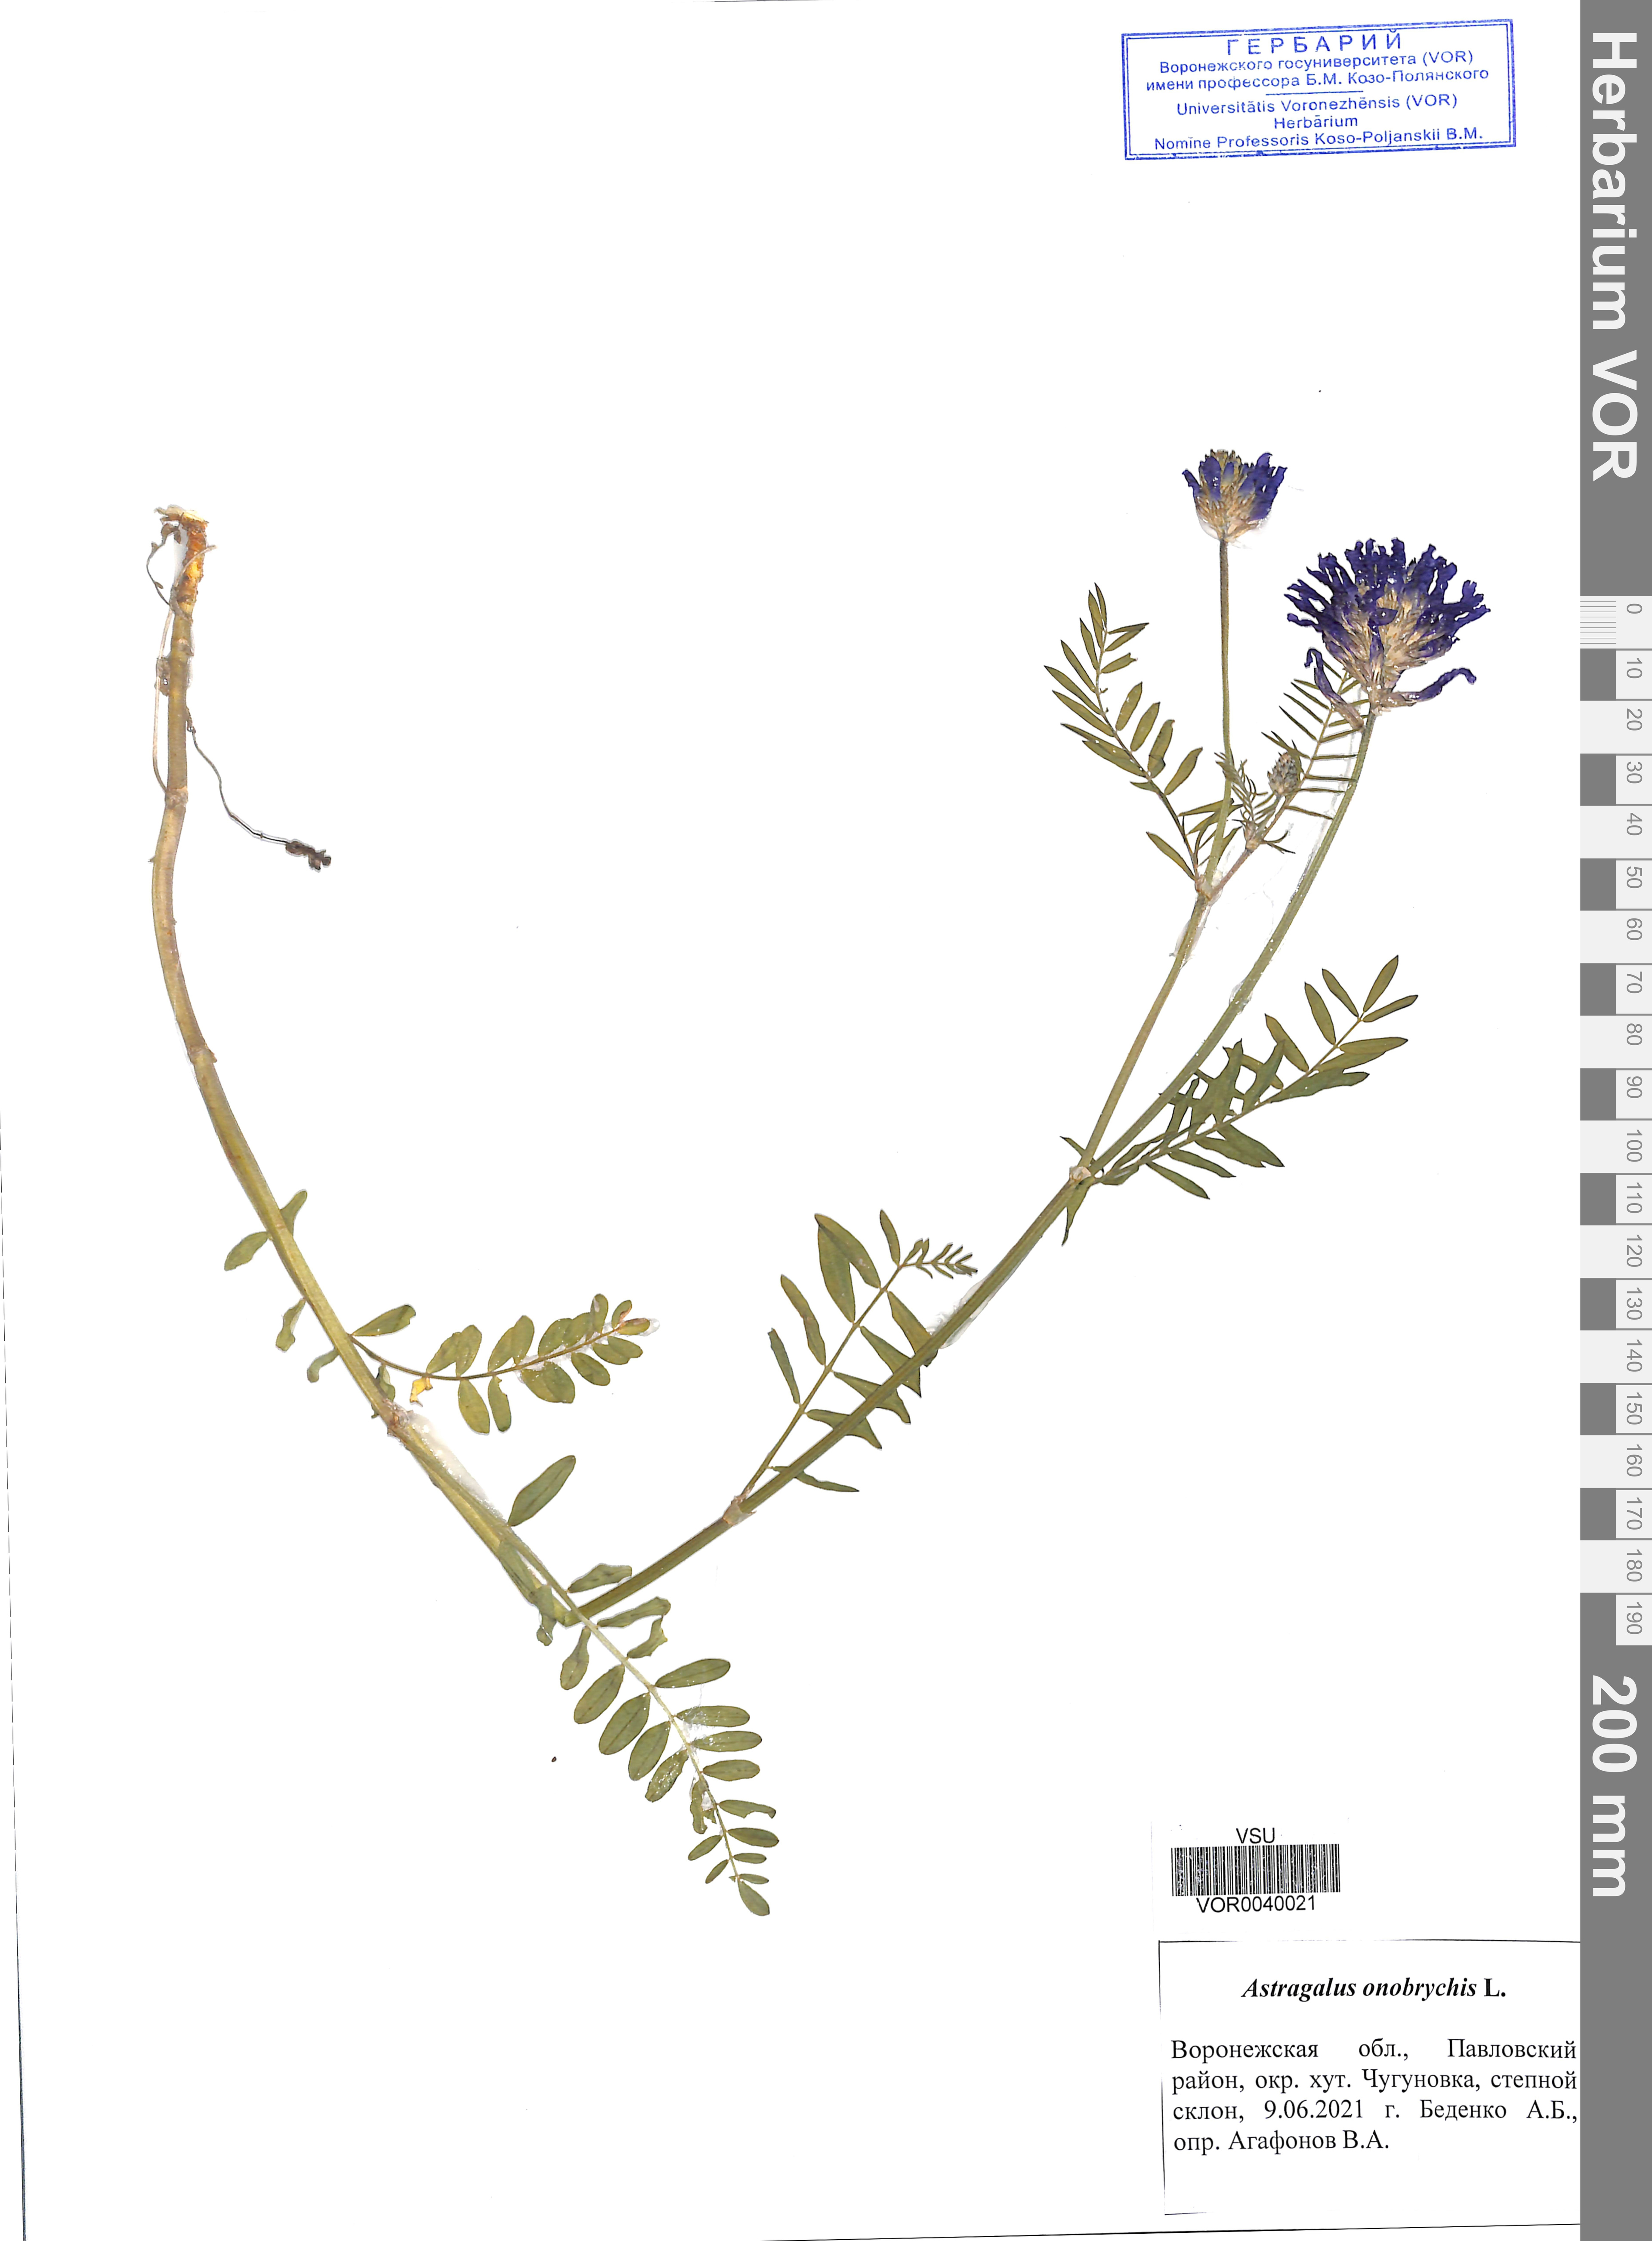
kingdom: Plantae
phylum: Tracheophyta
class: Magnoliopsida
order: Fabales
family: Fabaceae
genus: Astragalus
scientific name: Astragalus onobrychis
